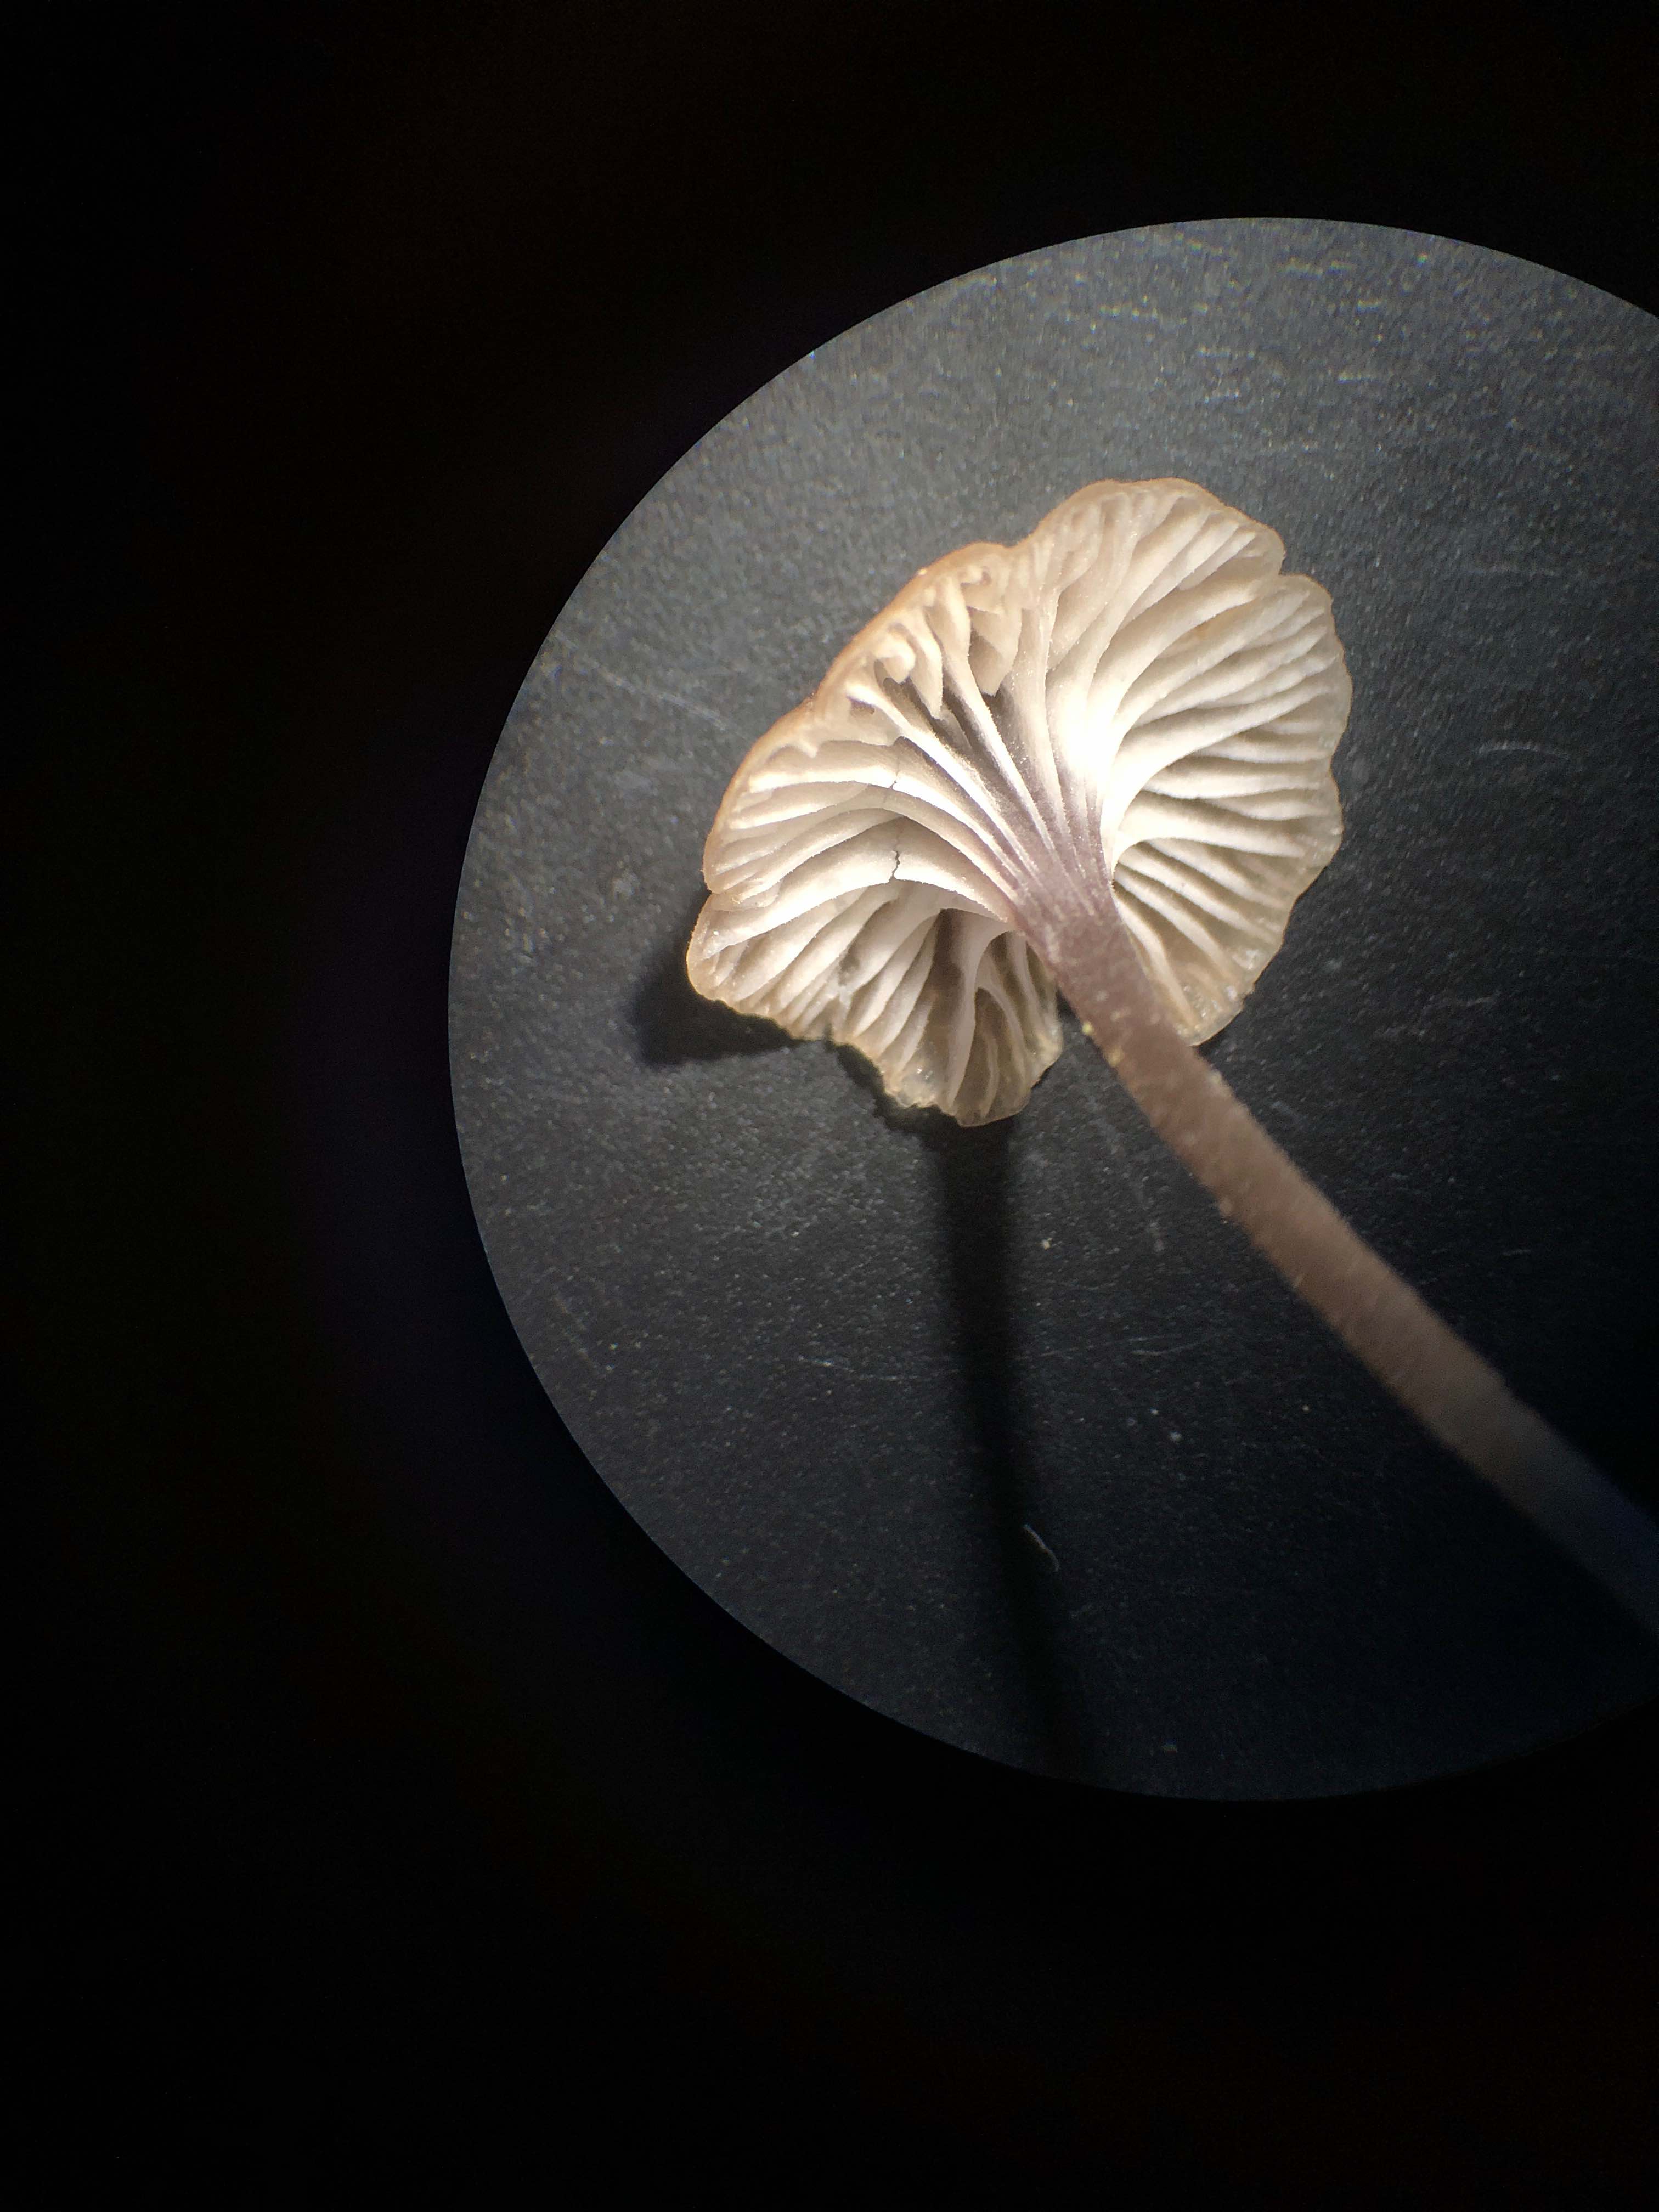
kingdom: Fungi
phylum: Basidiomycota
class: Agaricomycetes
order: Hymenochaetales
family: Rickenellaceae
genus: Rickenella
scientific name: Rickenella swartzii
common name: finstokket mosnavlehat
